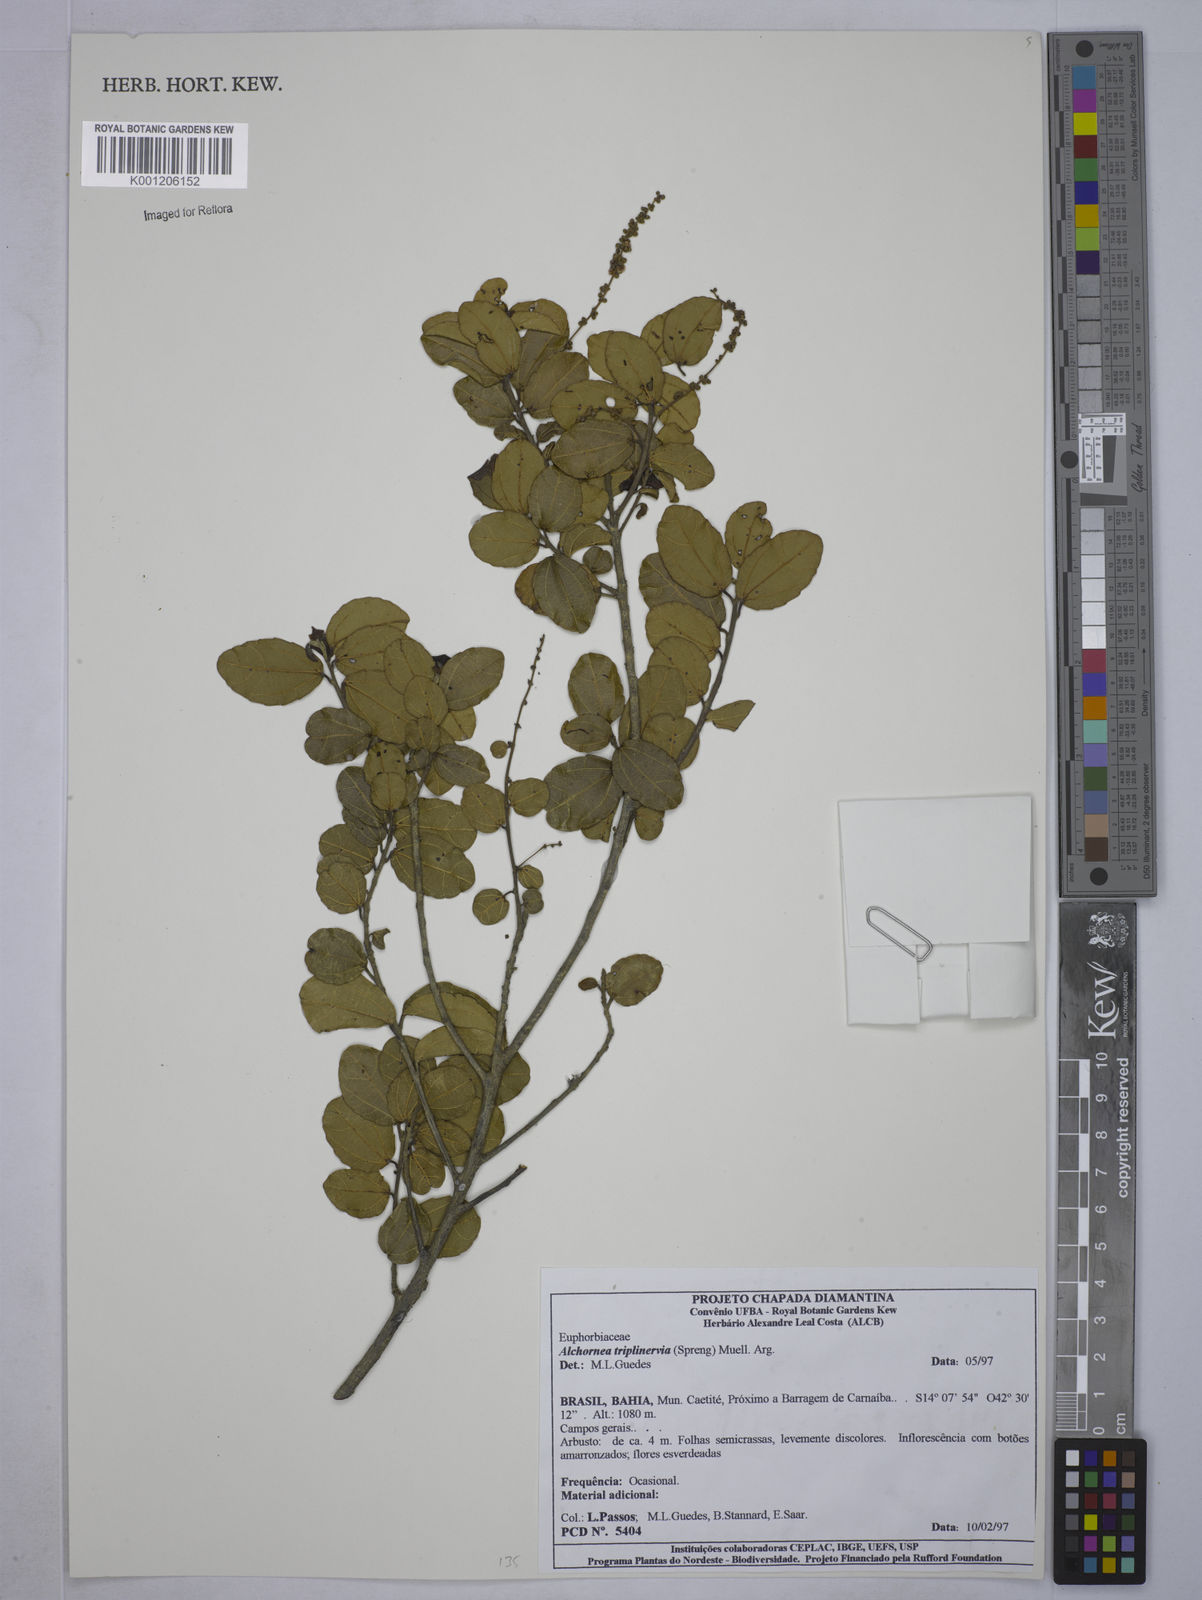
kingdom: Plantae
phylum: Tracheophyta
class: Magnoliopsida
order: Malpighiales
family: Euphorbiaceae
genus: Alchornea
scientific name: Alchornea
